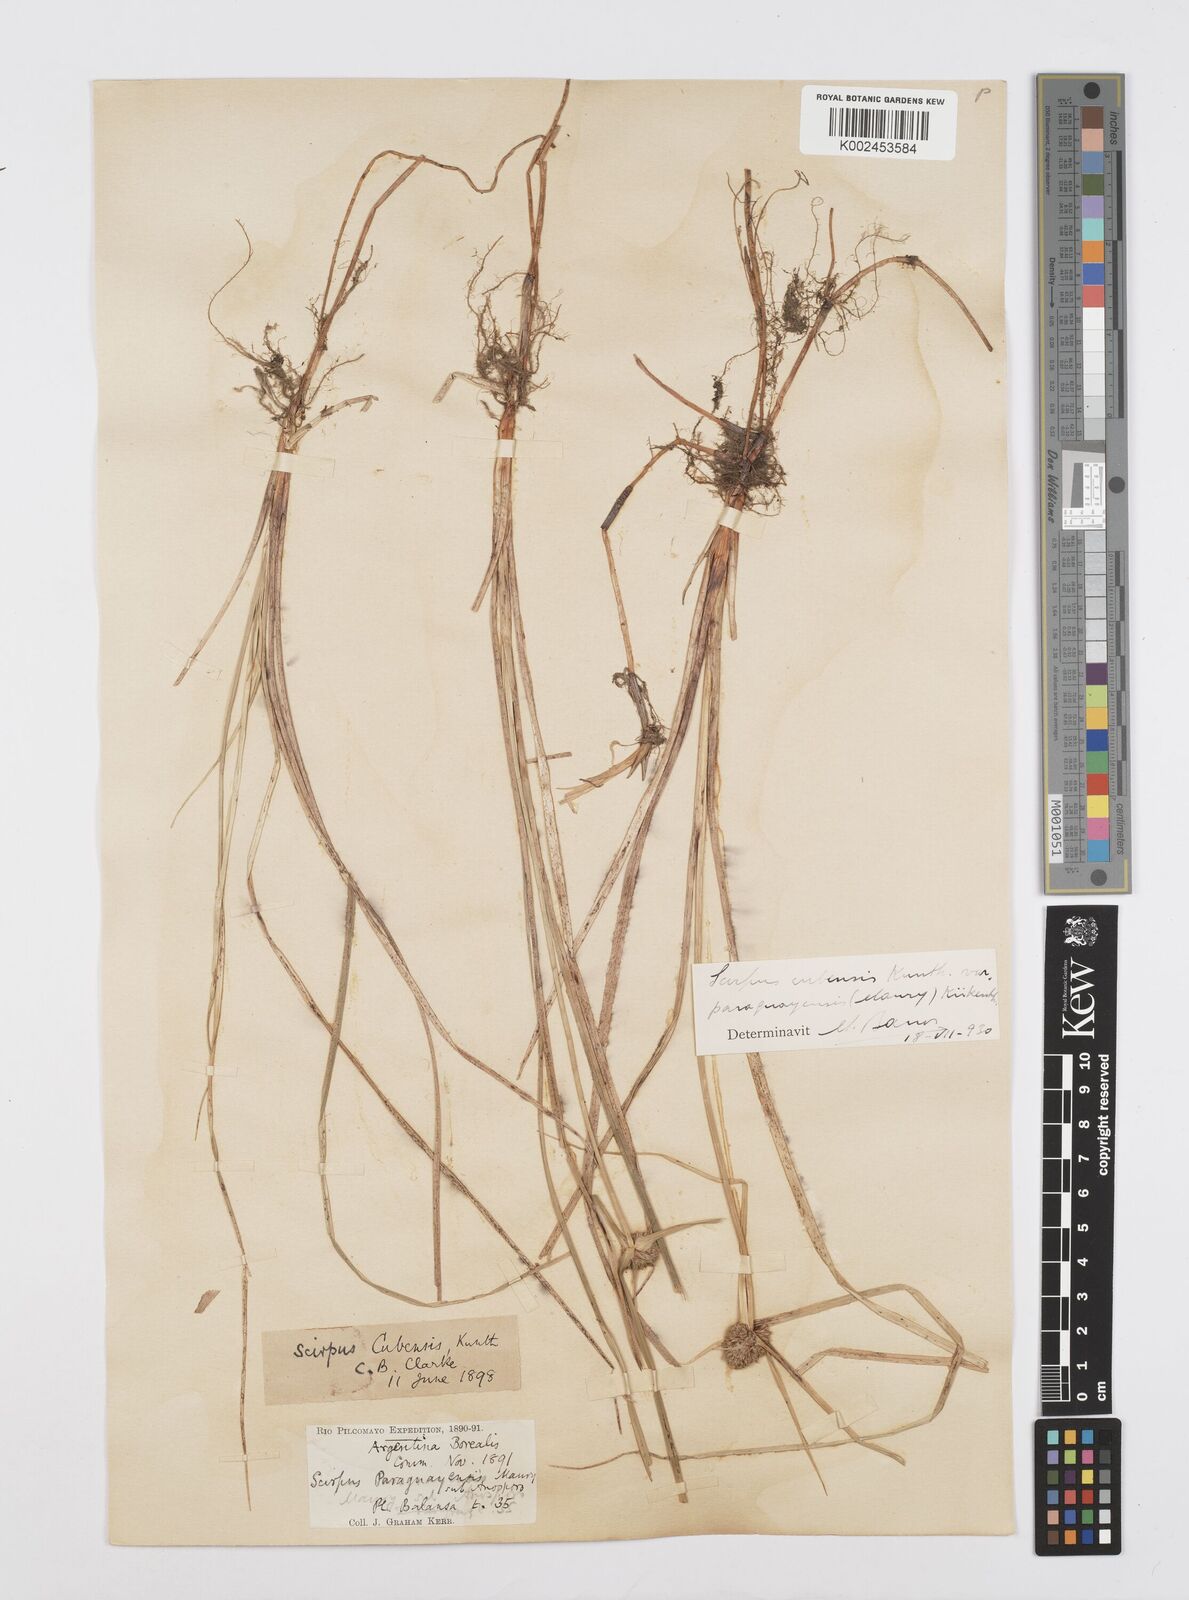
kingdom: Plantae
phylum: Tracheophyta
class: Liliopsida
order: Poales
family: Cyperaceae
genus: Cyperus
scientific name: Cyperus elegans
